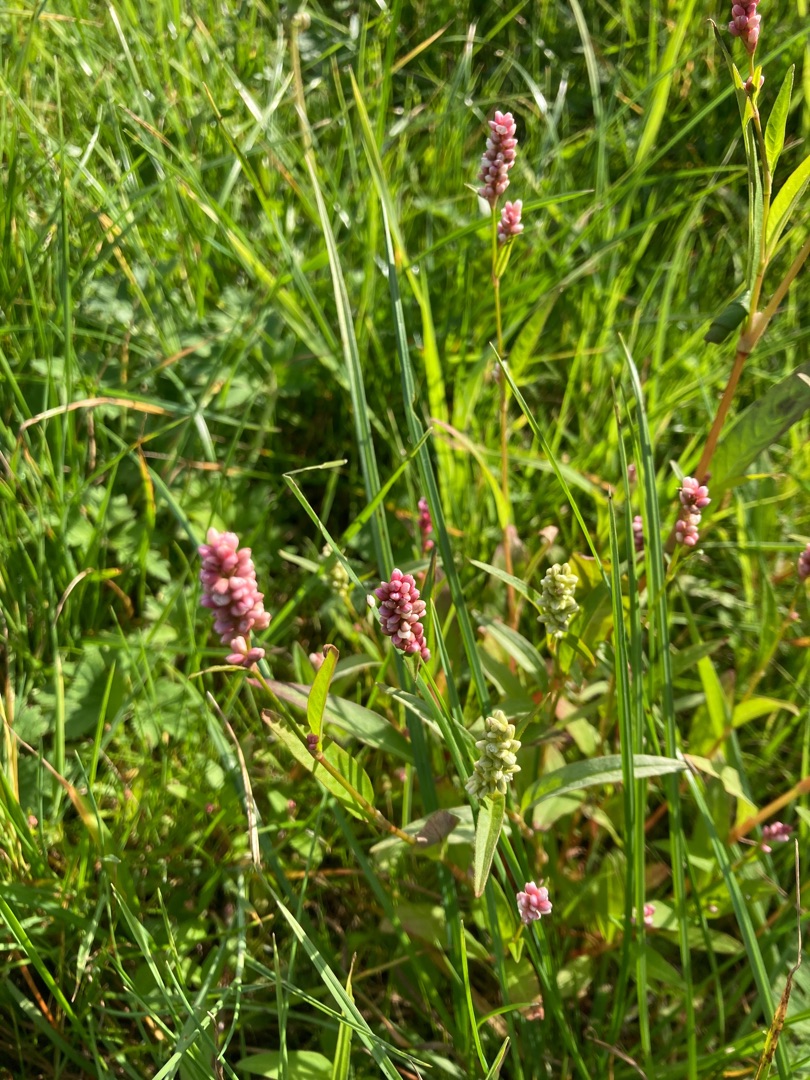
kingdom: Plantae
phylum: Tracheophyta
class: Magnoliopsida
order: Caryophyllales
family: Polygonaceae
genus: Persicaria
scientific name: Persicaria maculosa
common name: Fersken-pileurt
